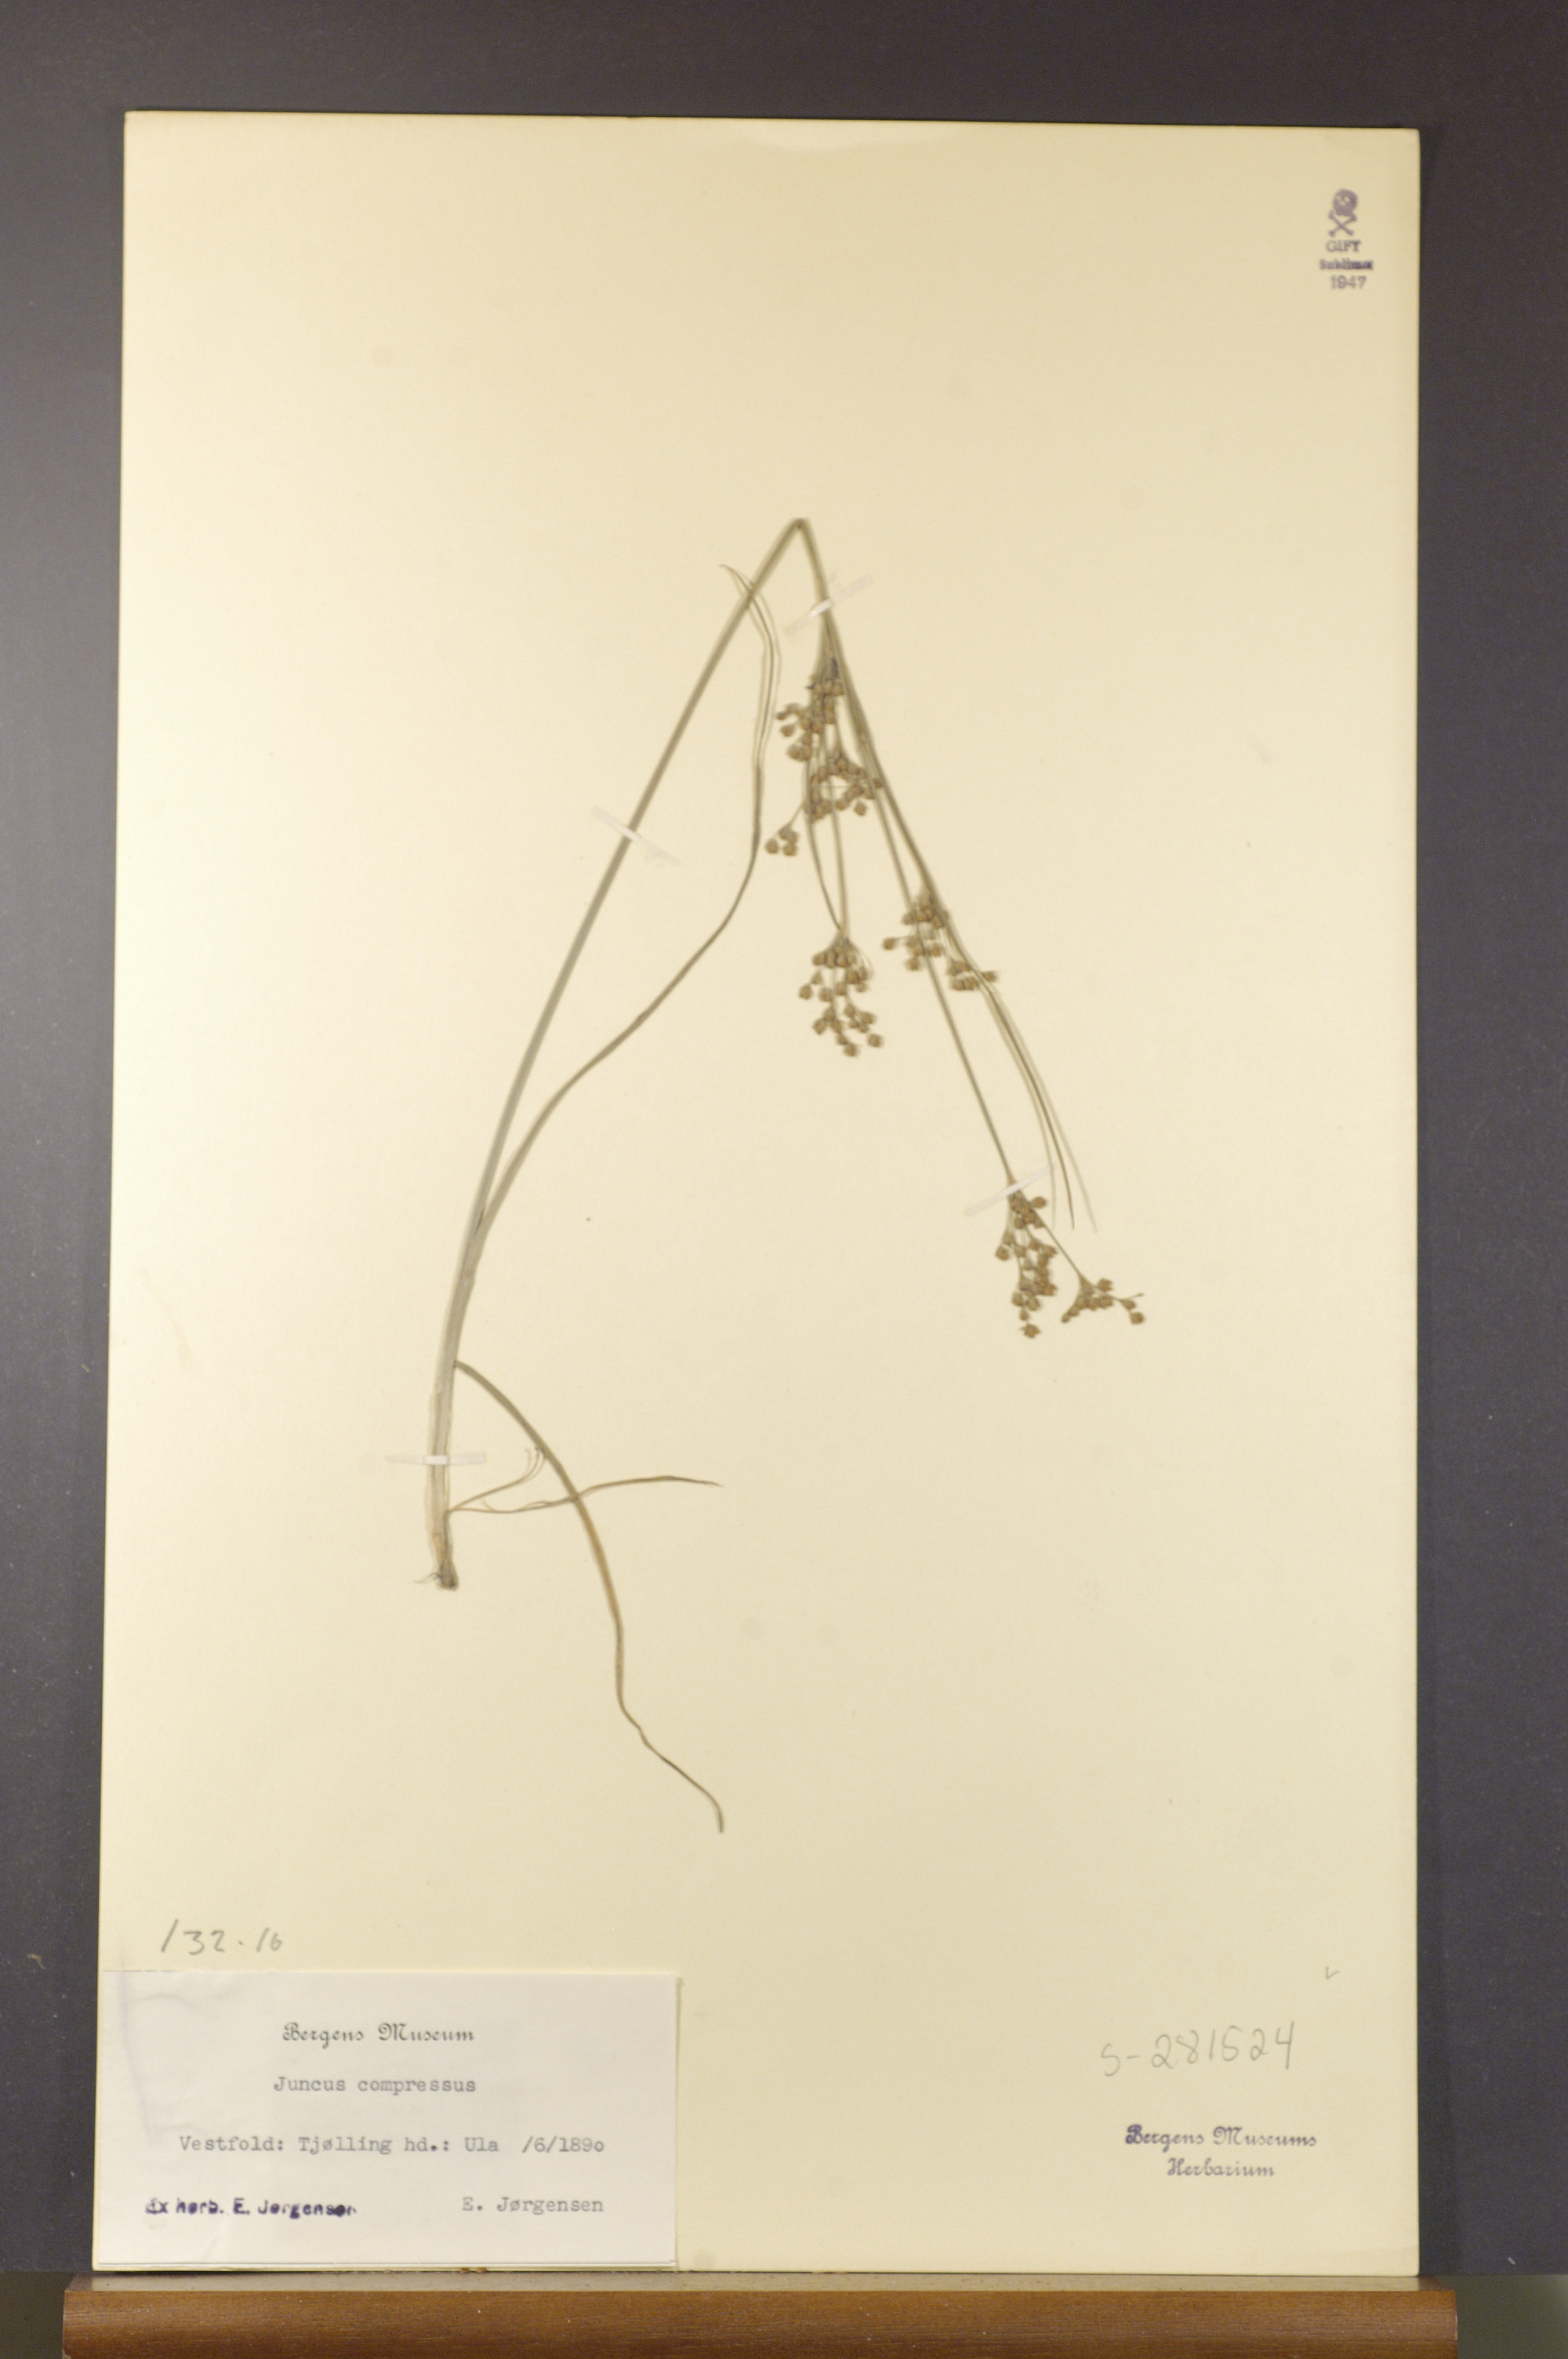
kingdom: Plantae
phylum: Tracheophyta
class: Liliopsida
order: Poales
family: Juncaceae
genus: Juncus
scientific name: Juncus compressus
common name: Round-fruited rush
